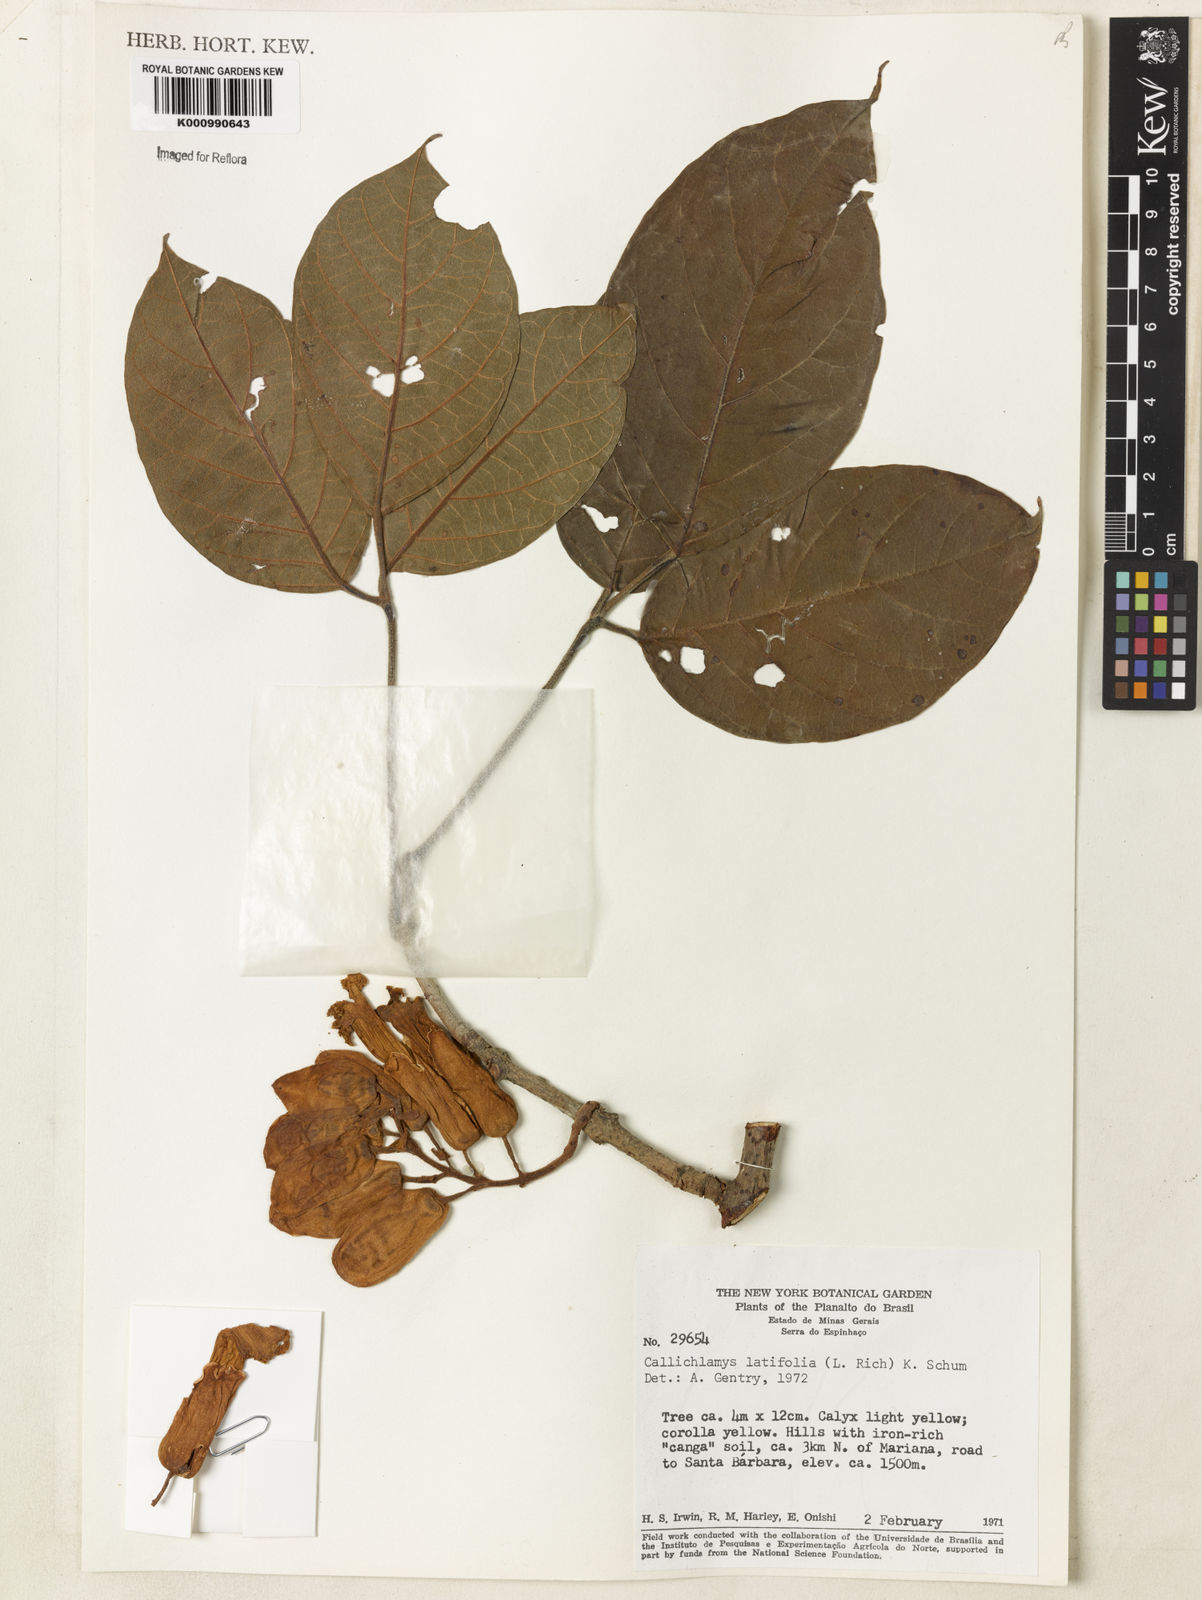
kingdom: Plantae
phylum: Tracheophyta
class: Magnoliopsida
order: Lamiales
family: Bignoniaceae
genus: Callichlamys
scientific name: Callichlamys latifolia
